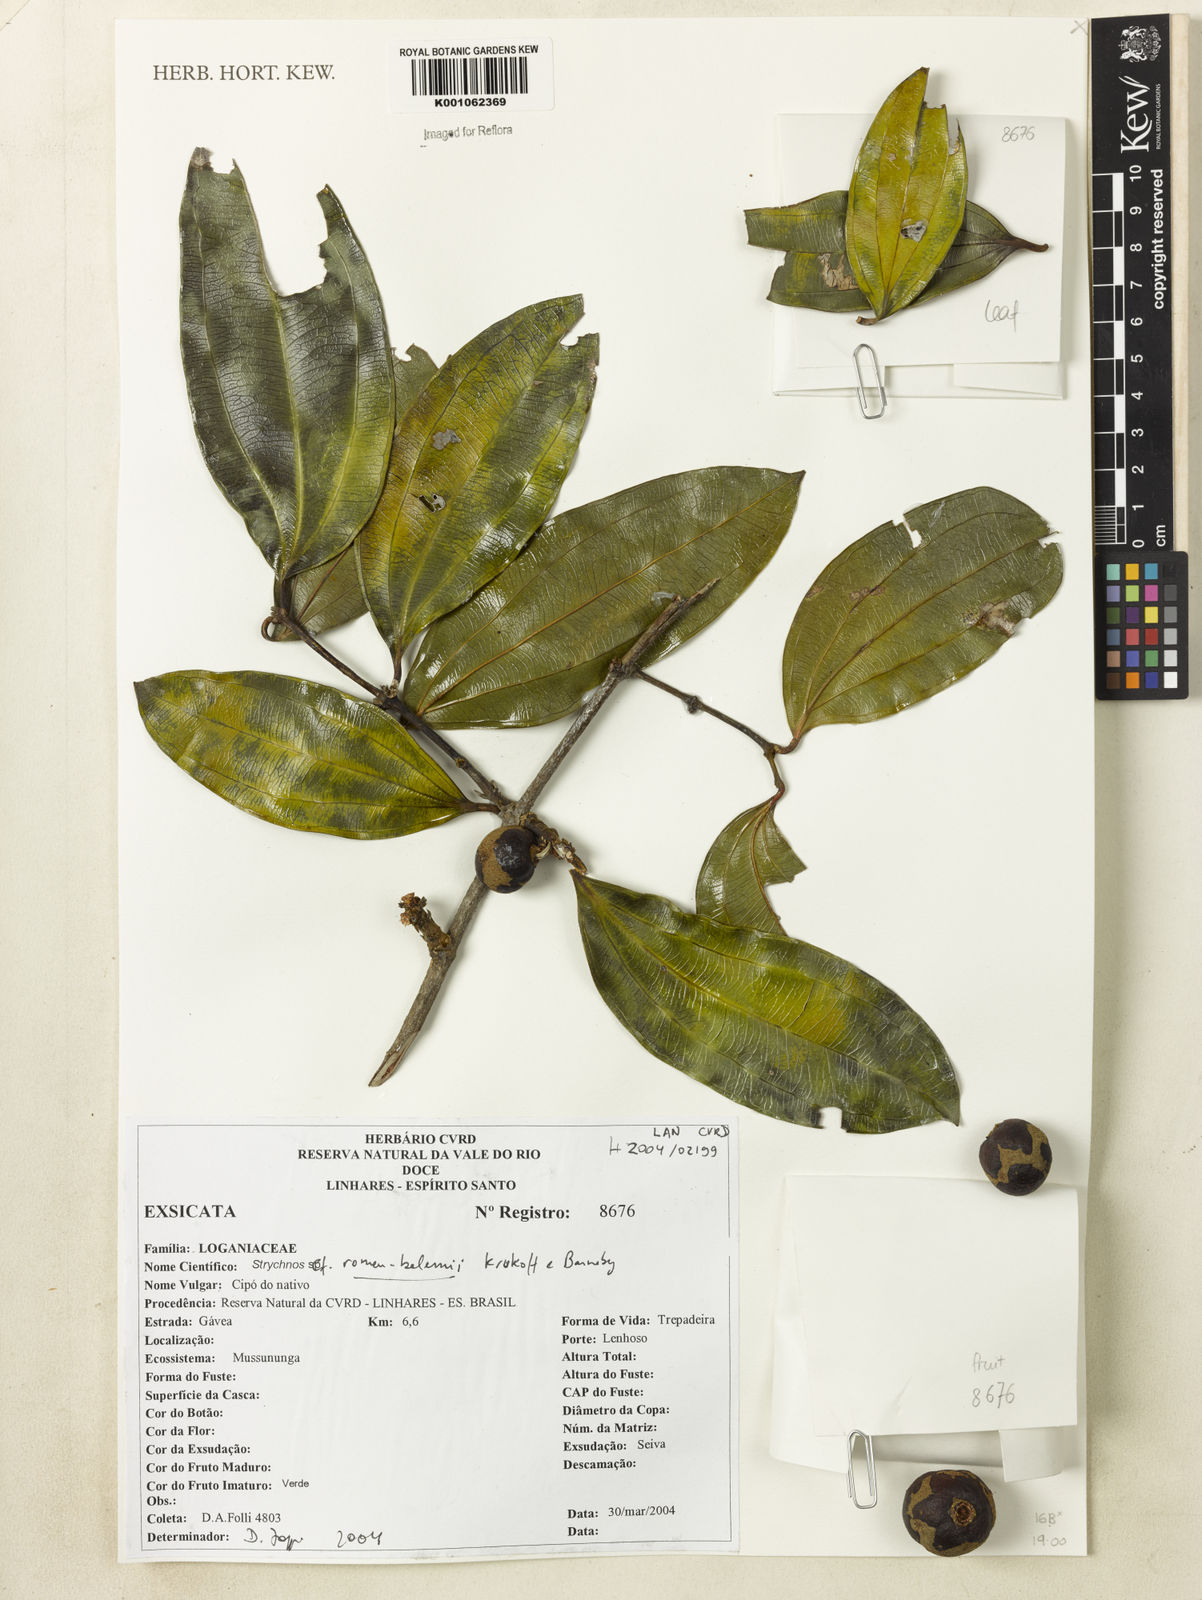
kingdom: Plantae
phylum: Tracheophyta
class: Magnoliopsida
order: Gentianales
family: Loganiaceae
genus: Strychnos
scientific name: Strychnos romeu-belenii
